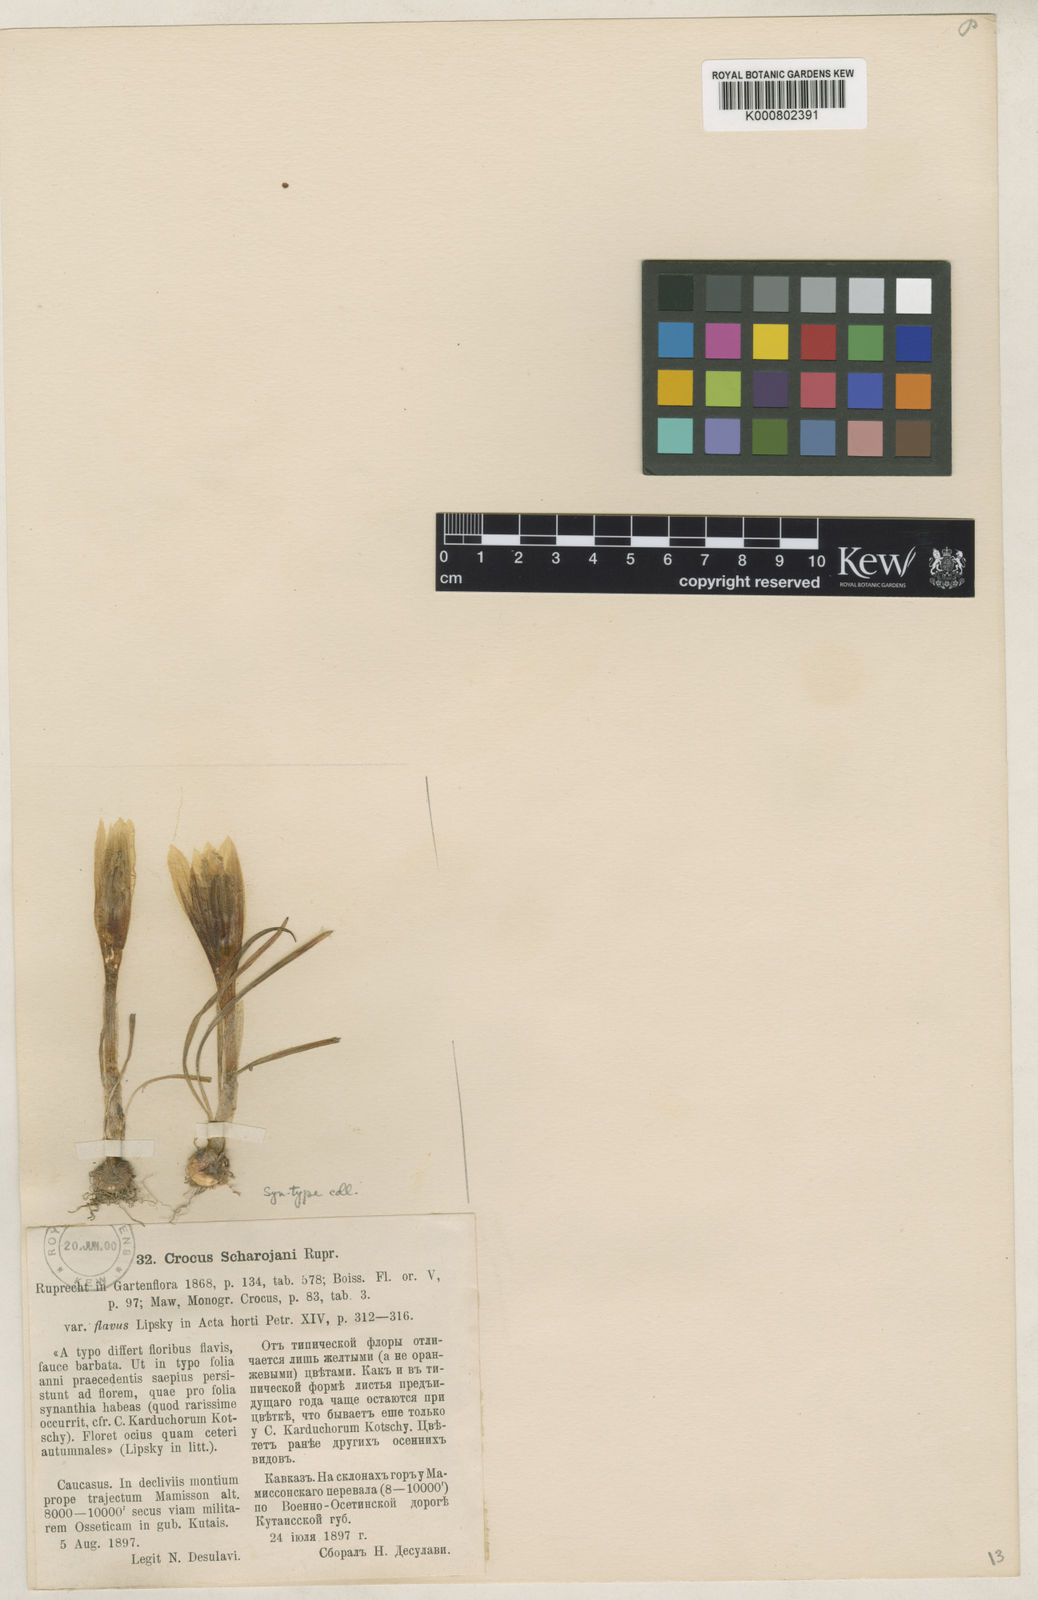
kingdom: Plantae
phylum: Tracheophyta
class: Liliopsida
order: Asparagales
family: Iridaceae
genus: Crocus
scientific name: Crocus scharojanii
